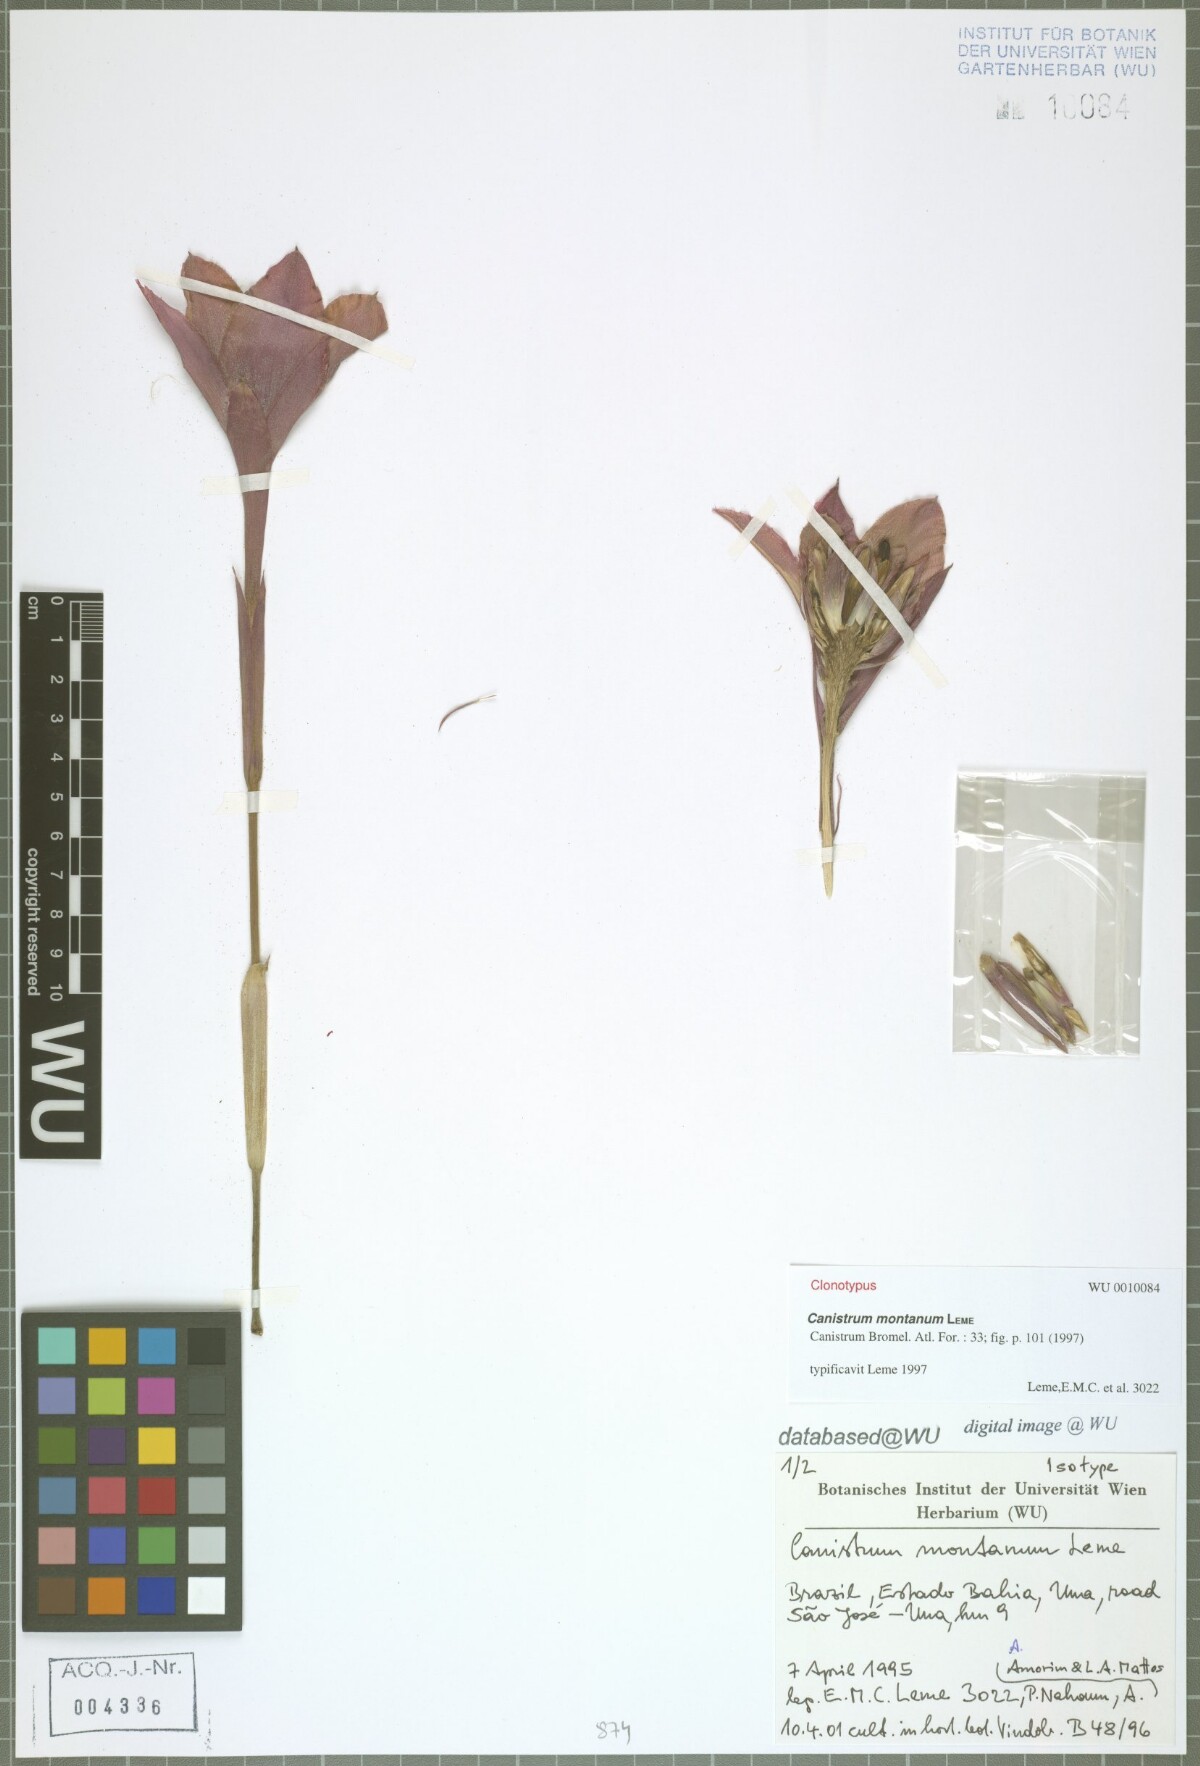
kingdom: Plantae
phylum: Tracheophyta
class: Liliopsida
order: Poales
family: Bromeliaceae
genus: Canistrum
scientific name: Canistrum montanum
